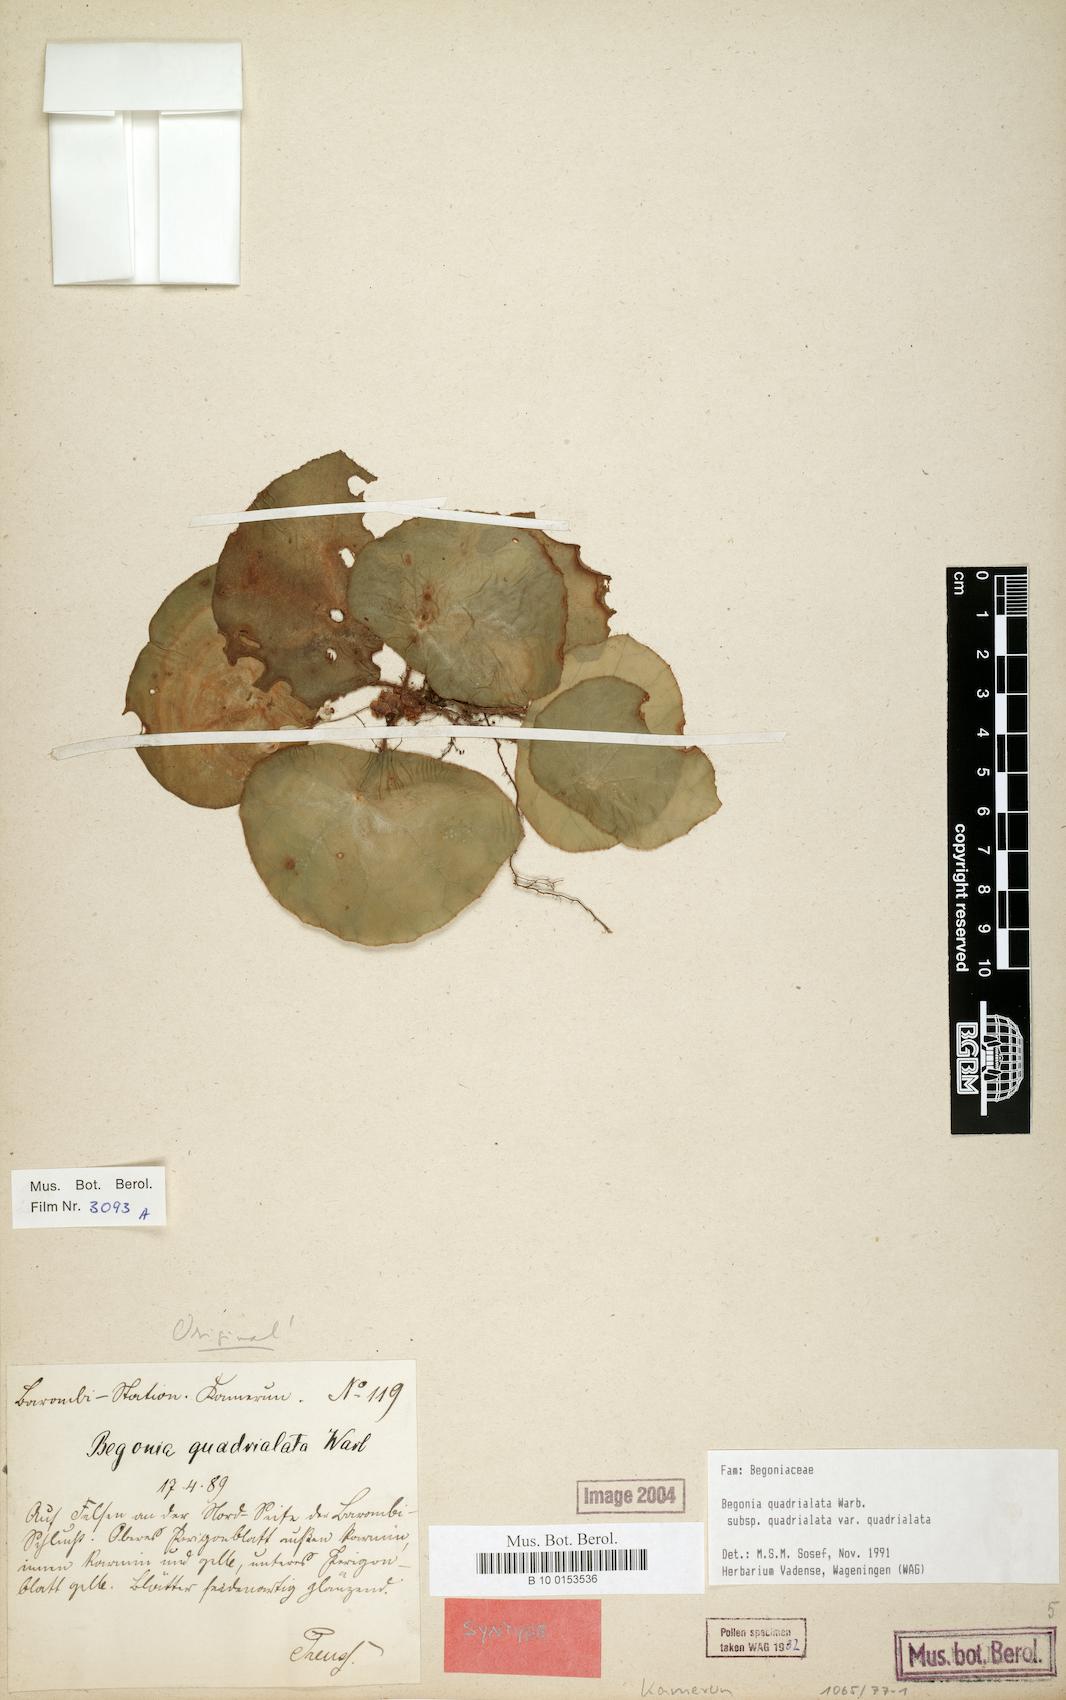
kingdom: Plantae
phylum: Tracheophyta
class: Magnoliopsida
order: Cucurbitales
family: Begoniaceae
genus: Begonia
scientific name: Begonia quadrialata
